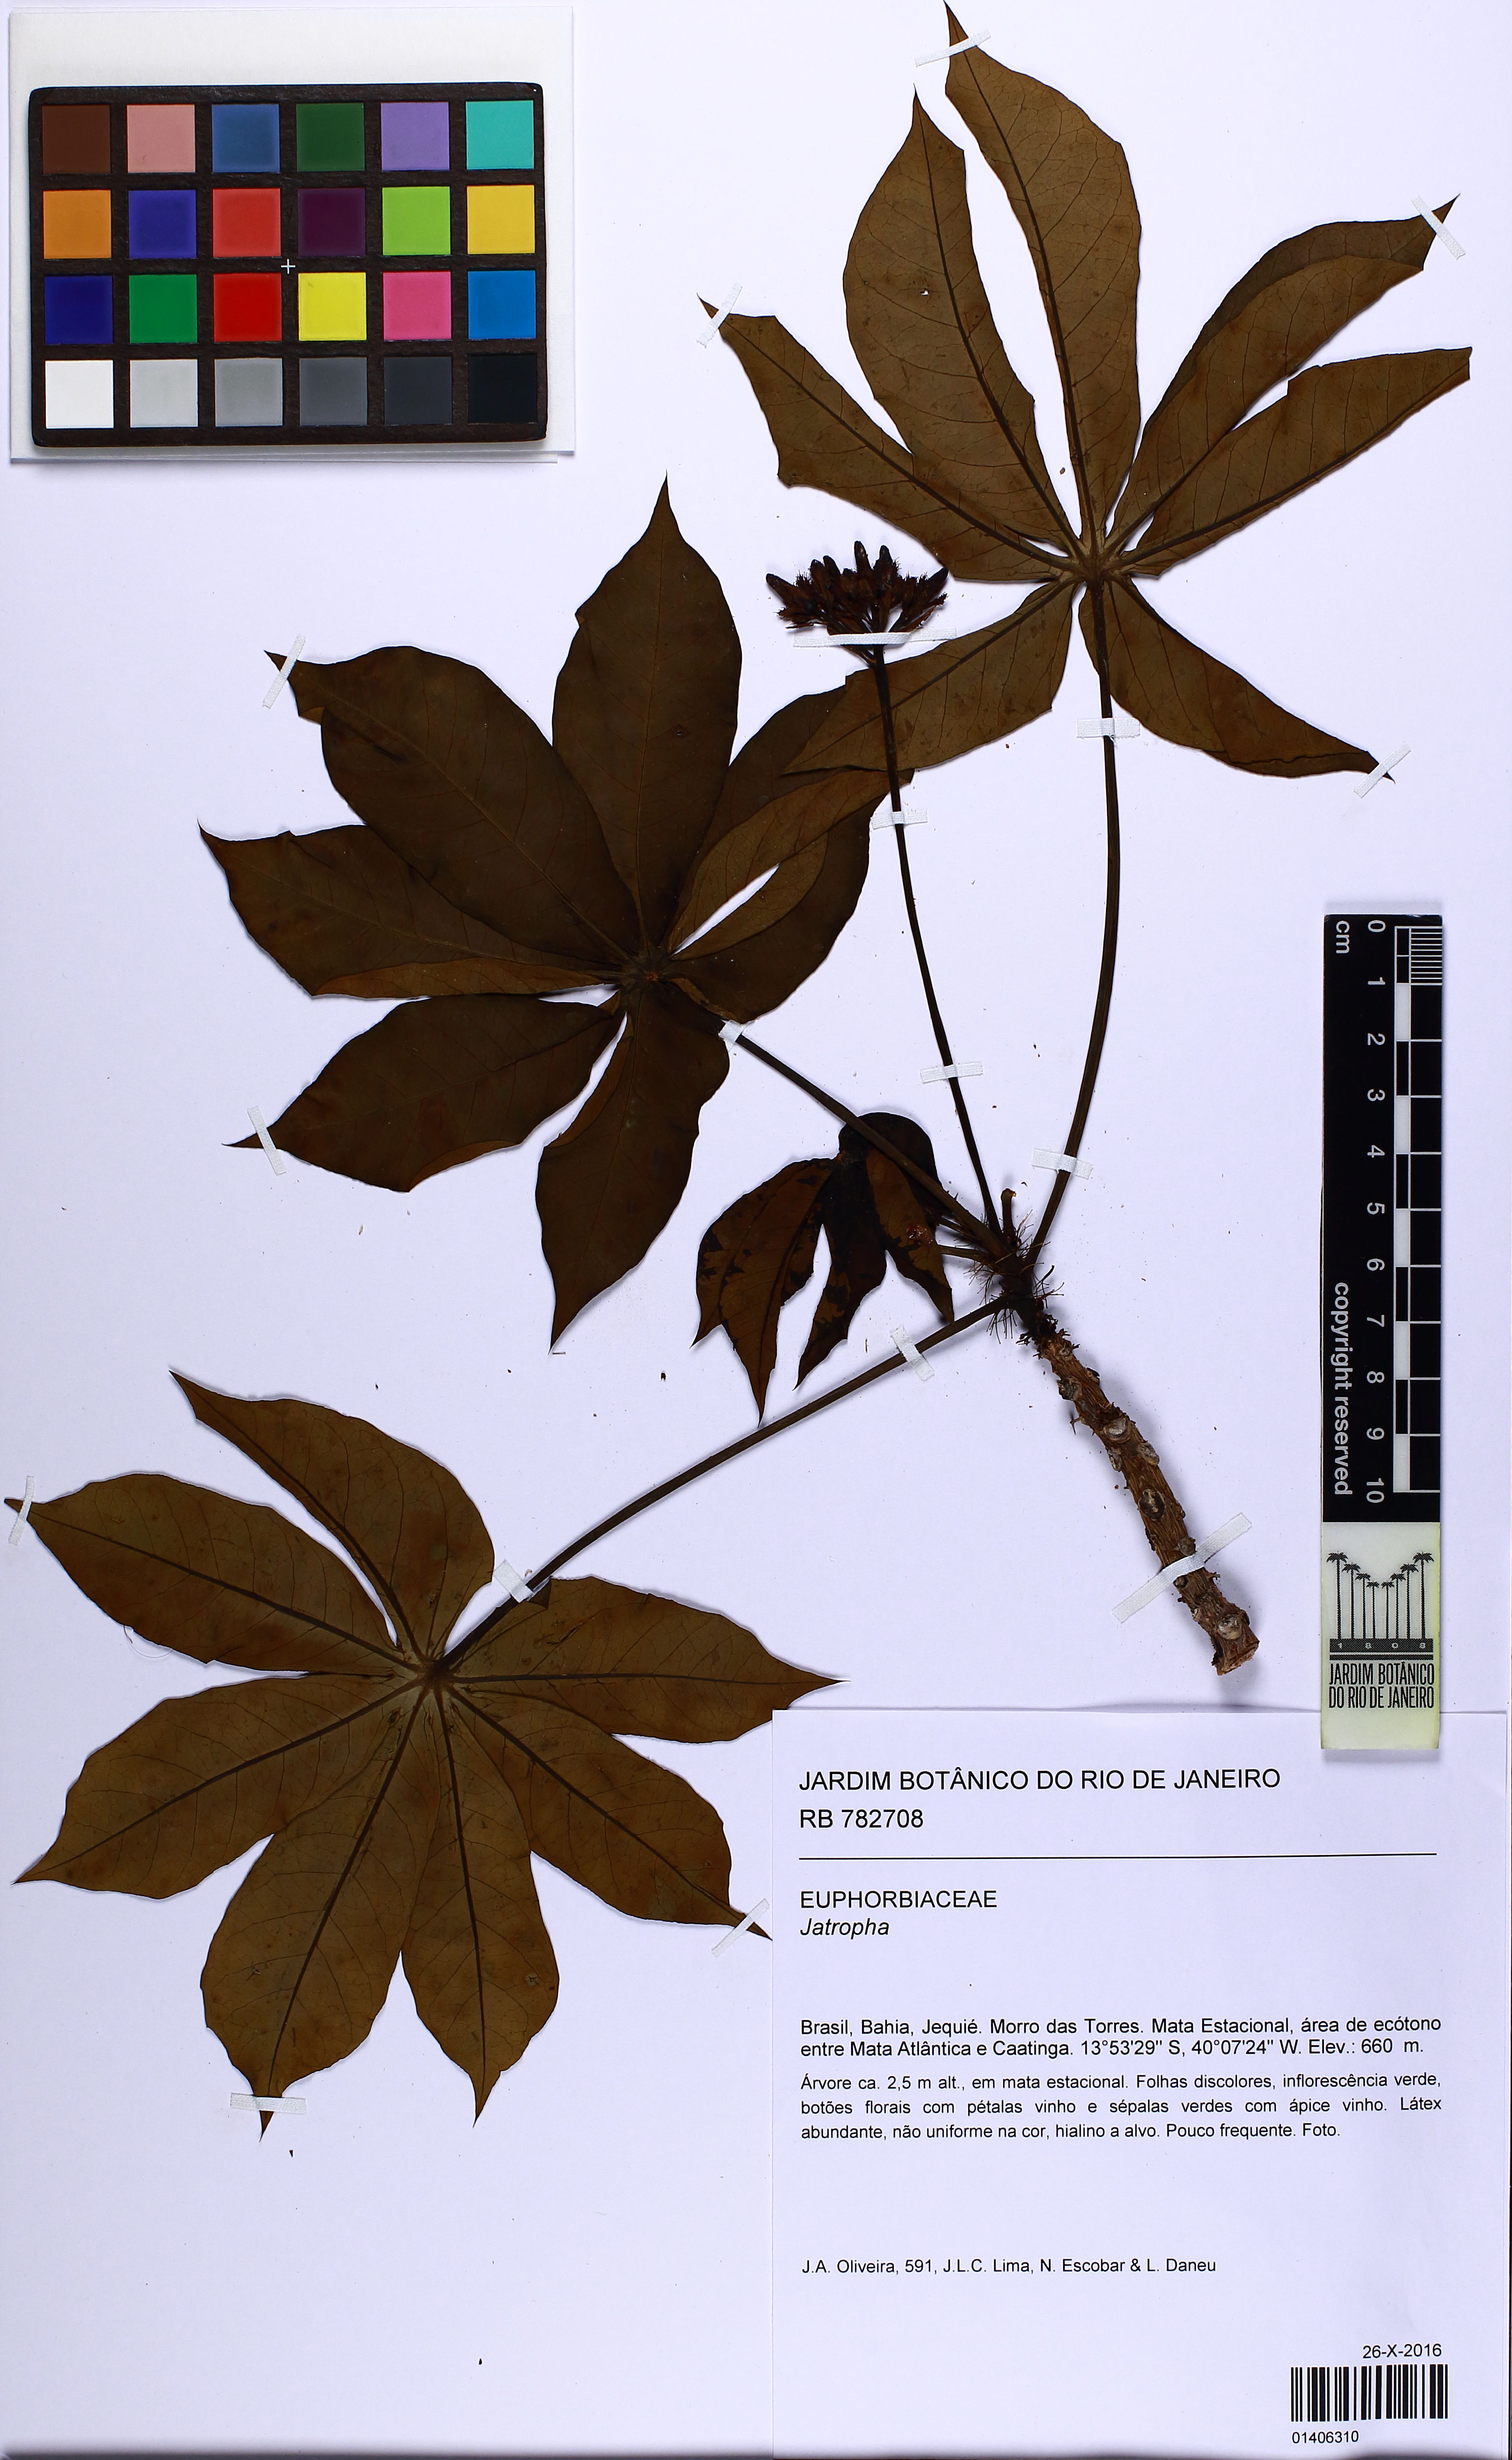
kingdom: Plantae
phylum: Tracheophyta
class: Magnoliopsida
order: Malpighiales
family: Euphorbiaceae
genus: Jatropha
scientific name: Jatropha palmatipartita
